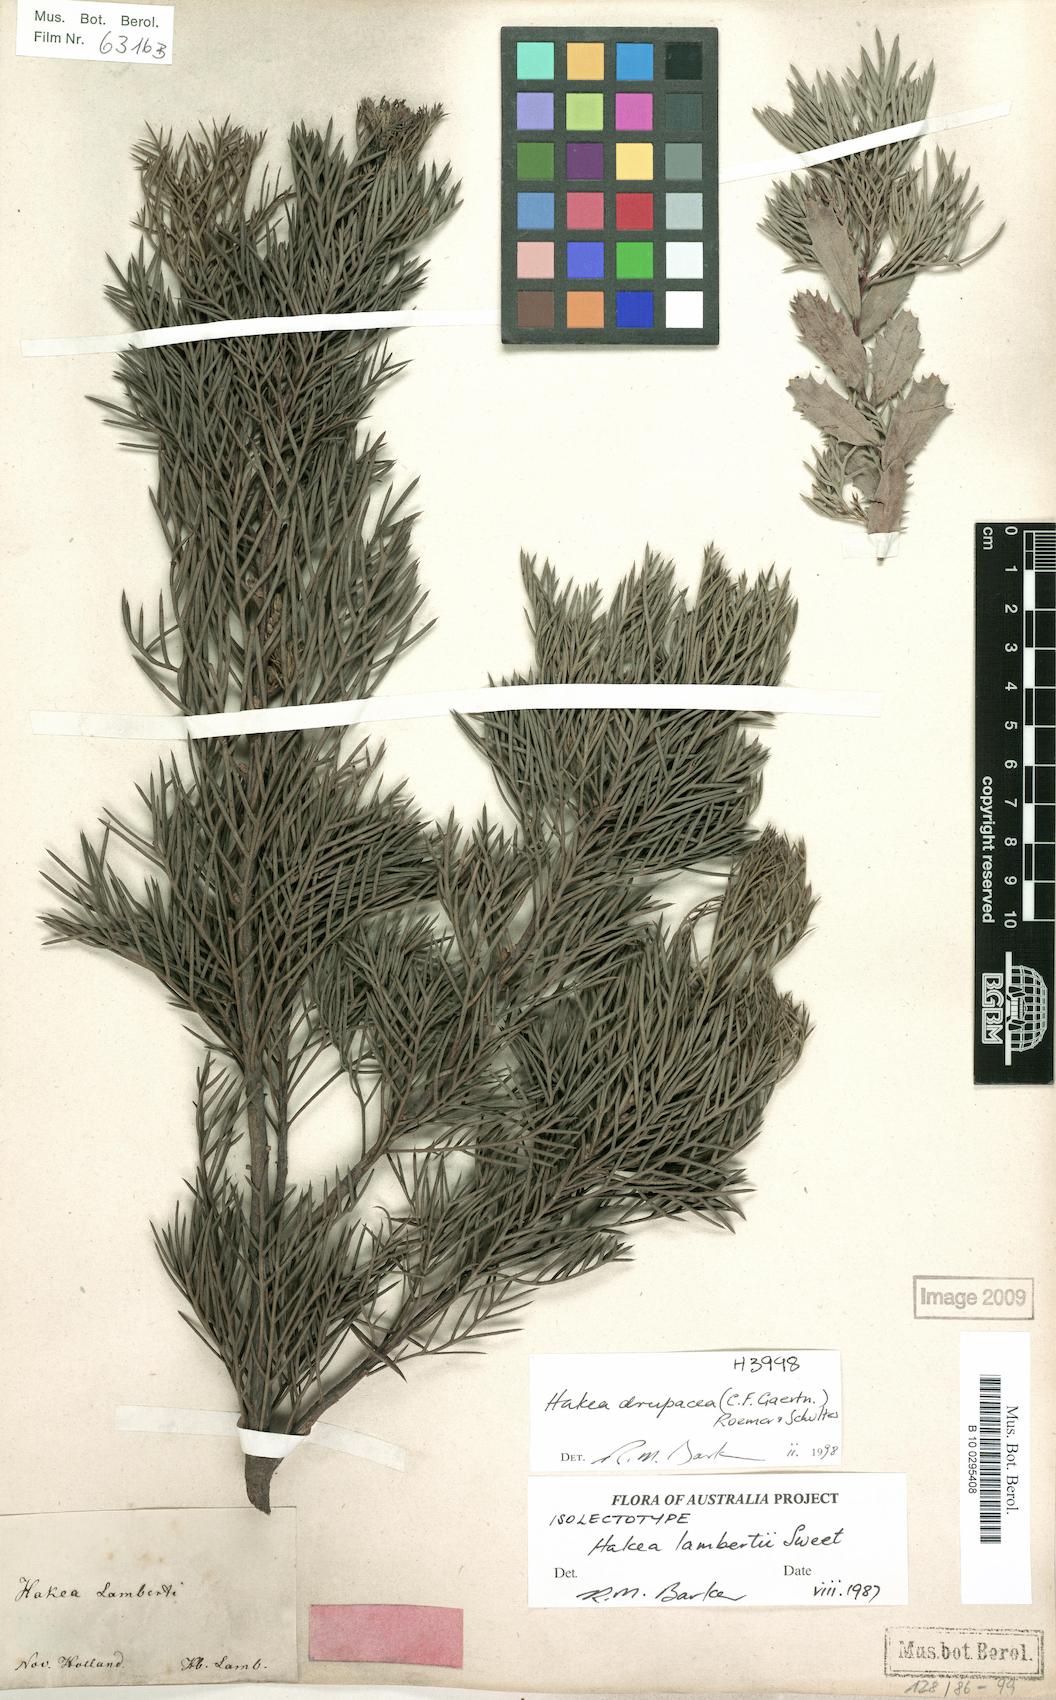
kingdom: Plantae
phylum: Tracheophyta
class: Magnoliopsida
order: Proteales
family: Proteaceae
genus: Hakea
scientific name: Hakea drupacea
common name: Sweet hakea
